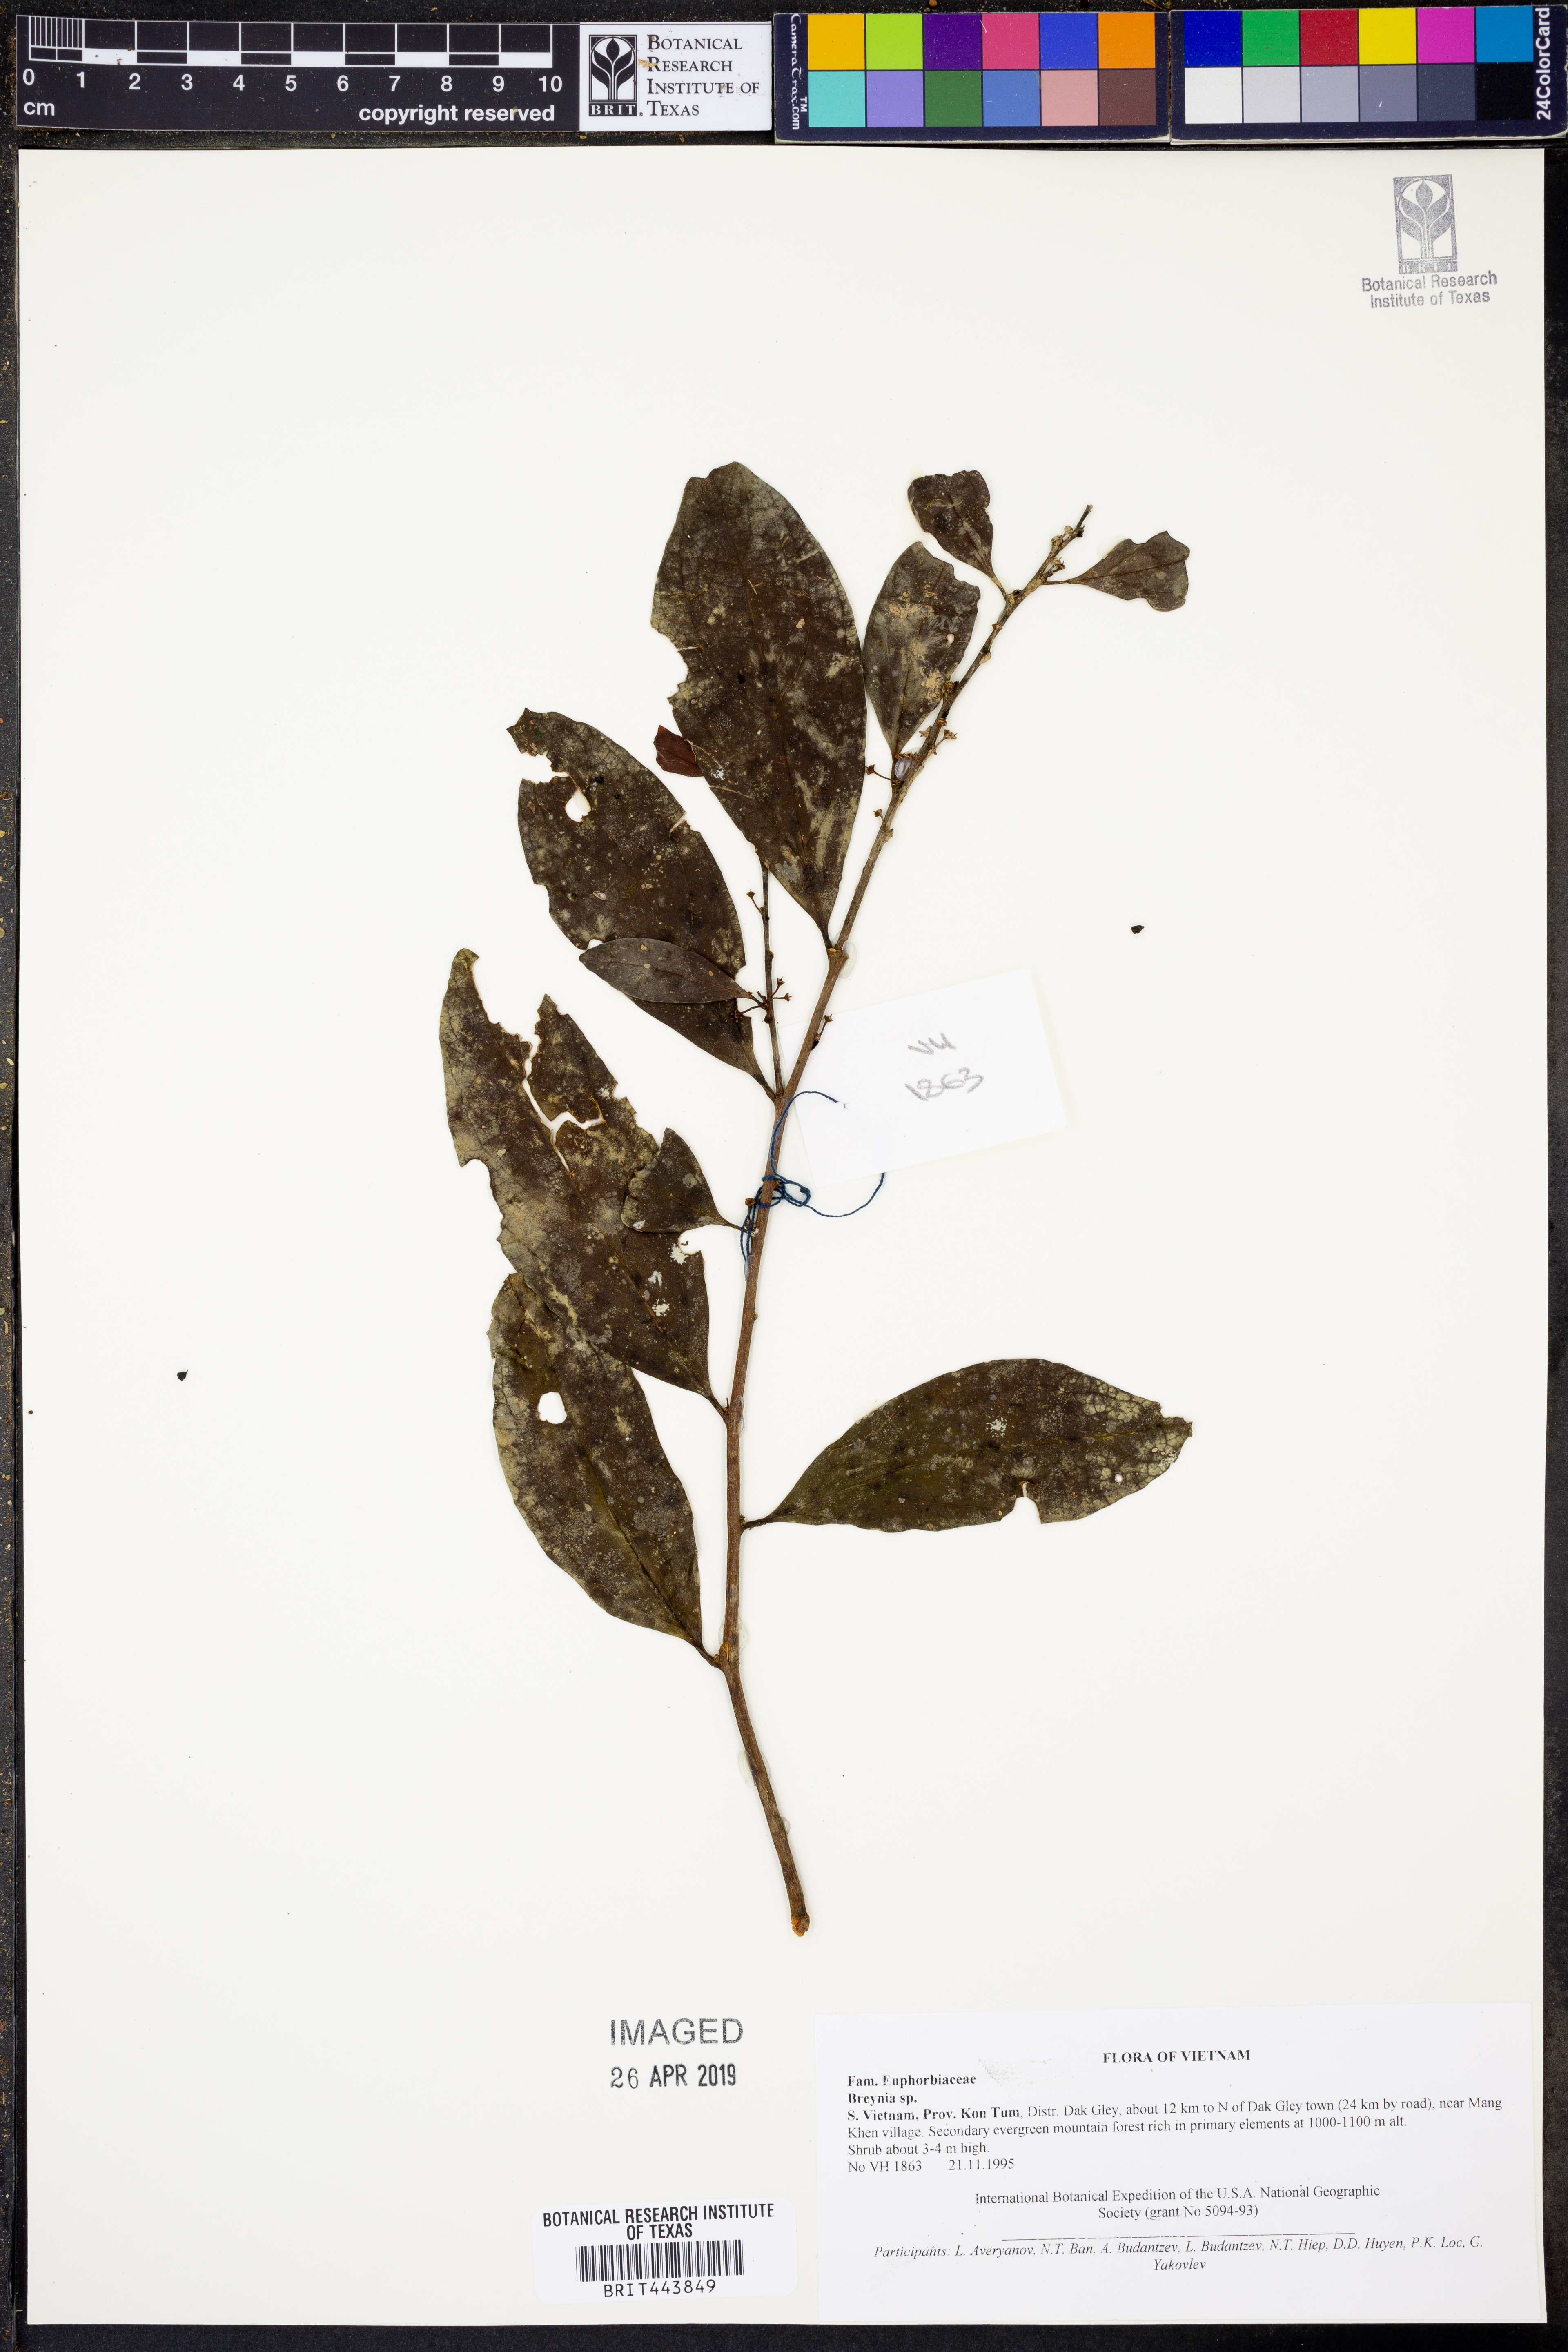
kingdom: Plantae
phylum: Tracheophyta
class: Magnoliopsida
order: Malpighiales
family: Phyllanthaceae
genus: Breynia
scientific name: Breynia
